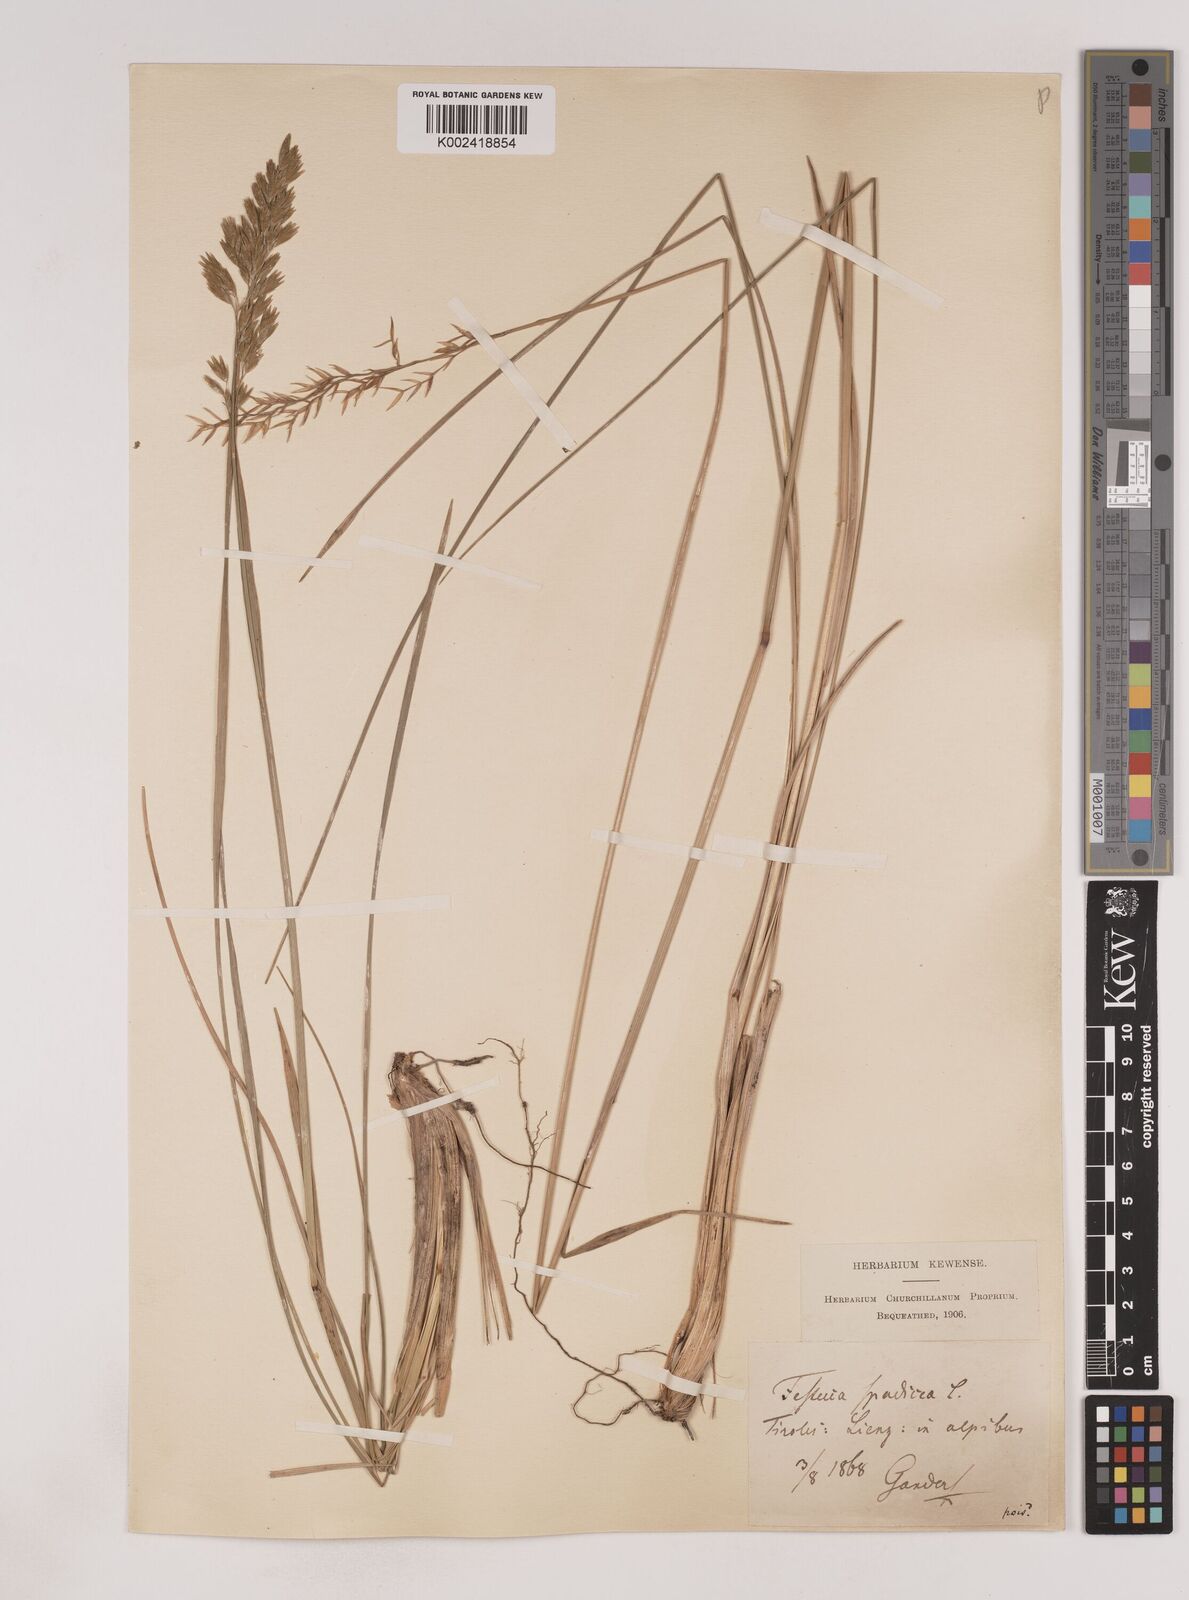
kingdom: Plantae
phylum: Tracheophyta
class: Liliopsida
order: Poales
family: Poaceae
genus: Patzkea
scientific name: Patzkea paniculata
